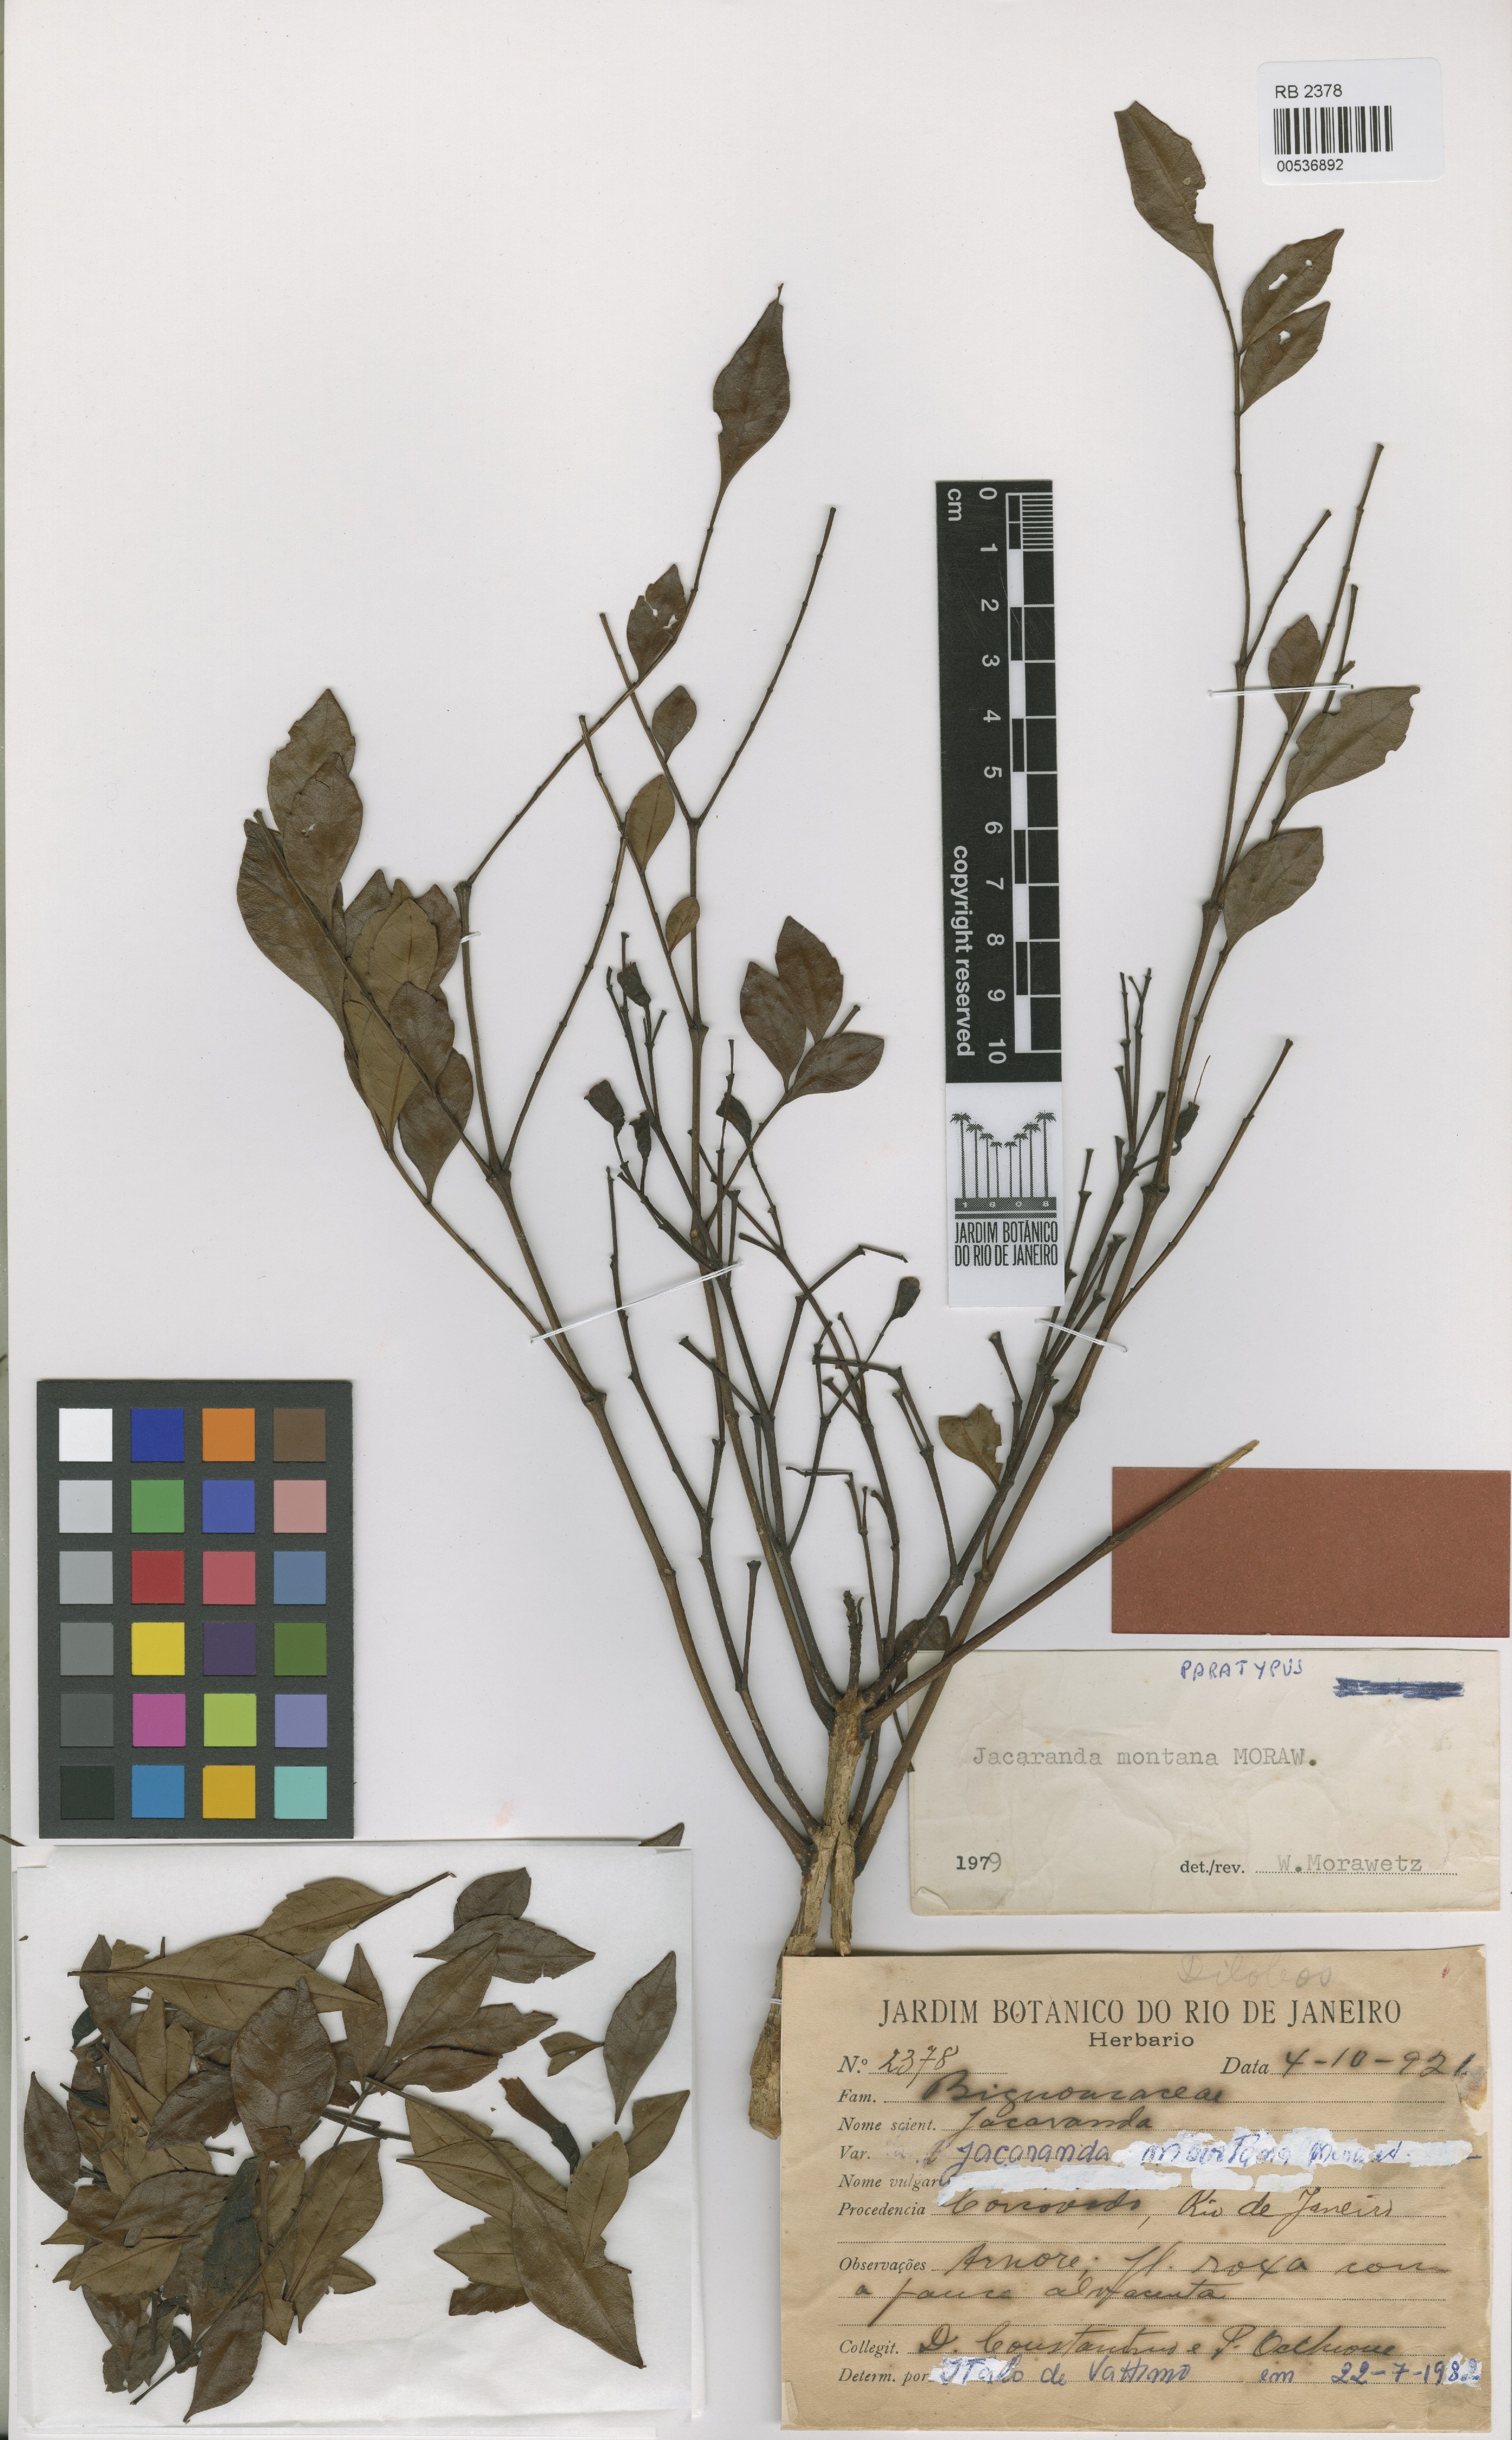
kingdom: Plantae
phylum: Tracheophyta
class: Magnoliopsida
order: Lamiales
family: Bignoniaceae
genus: Jacaranda
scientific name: Jacaranda montana
